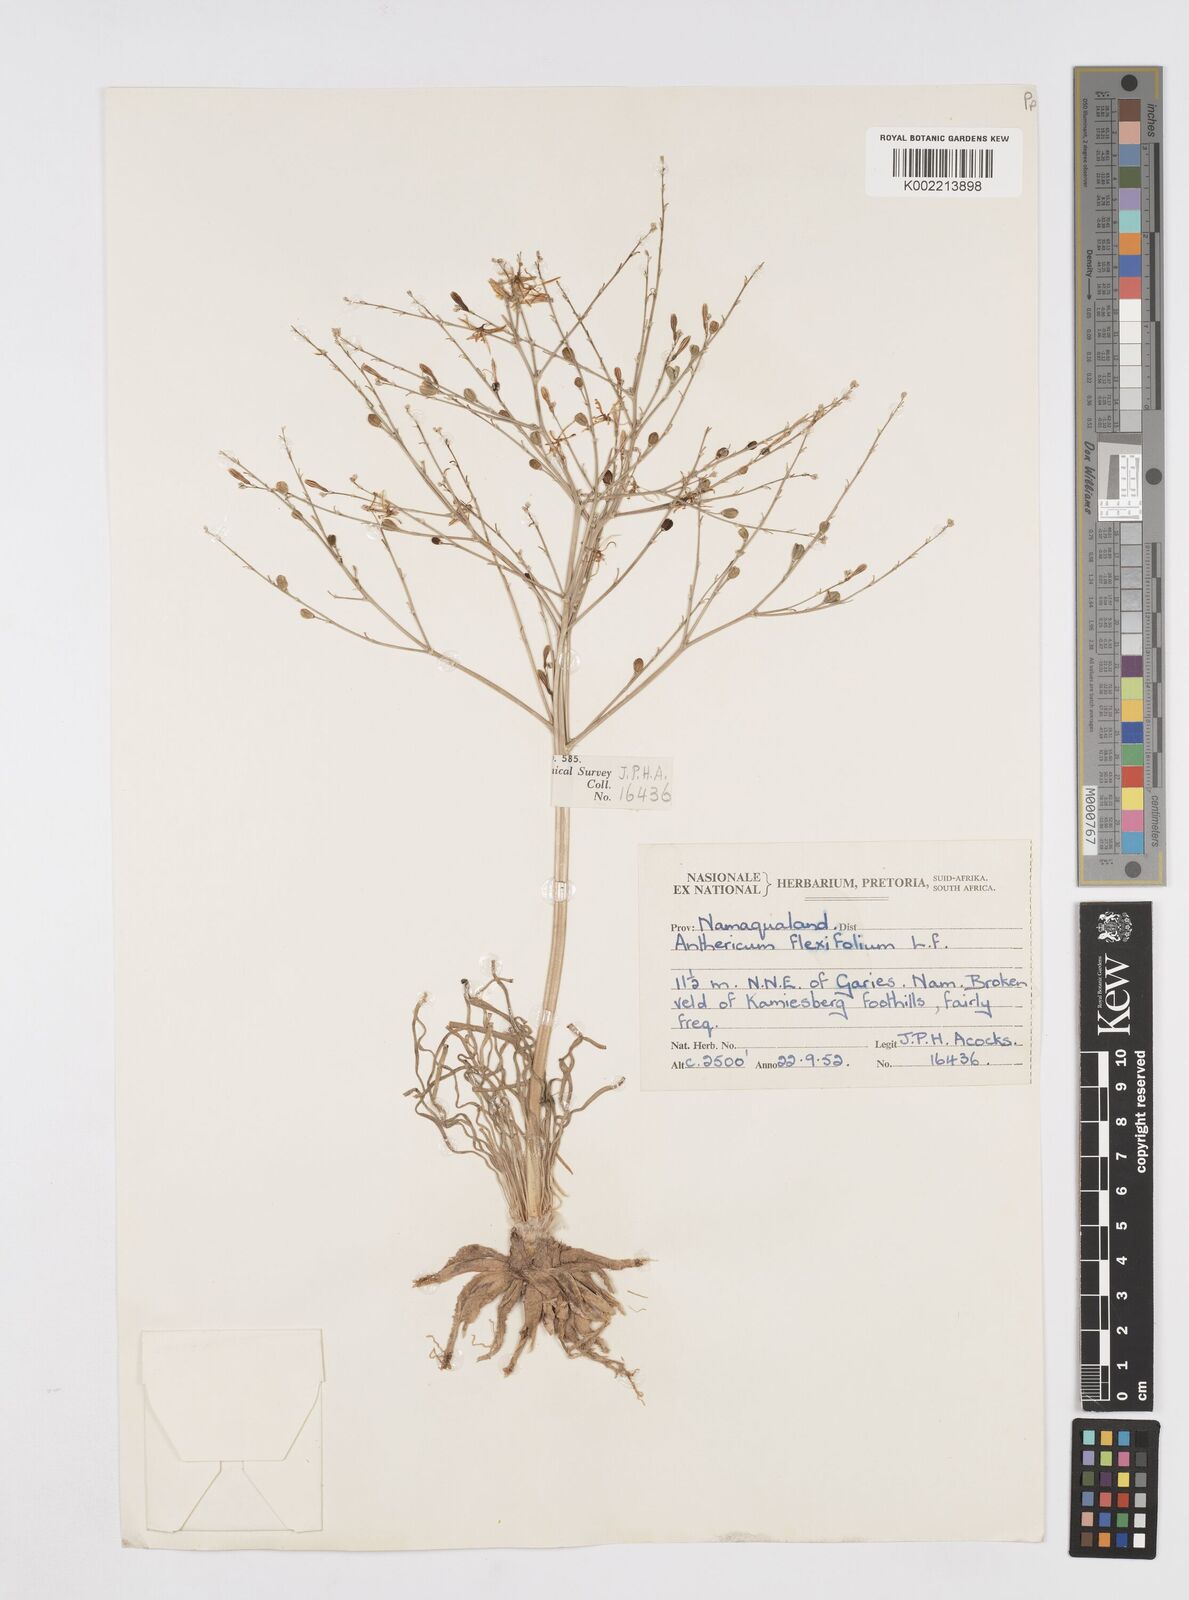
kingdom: Plantae
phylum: Tracheophyta
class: Liliopsida
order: Asparagales
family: Asphodelaceae
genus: Trachyandra
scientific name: Trachyandra flexifolia
